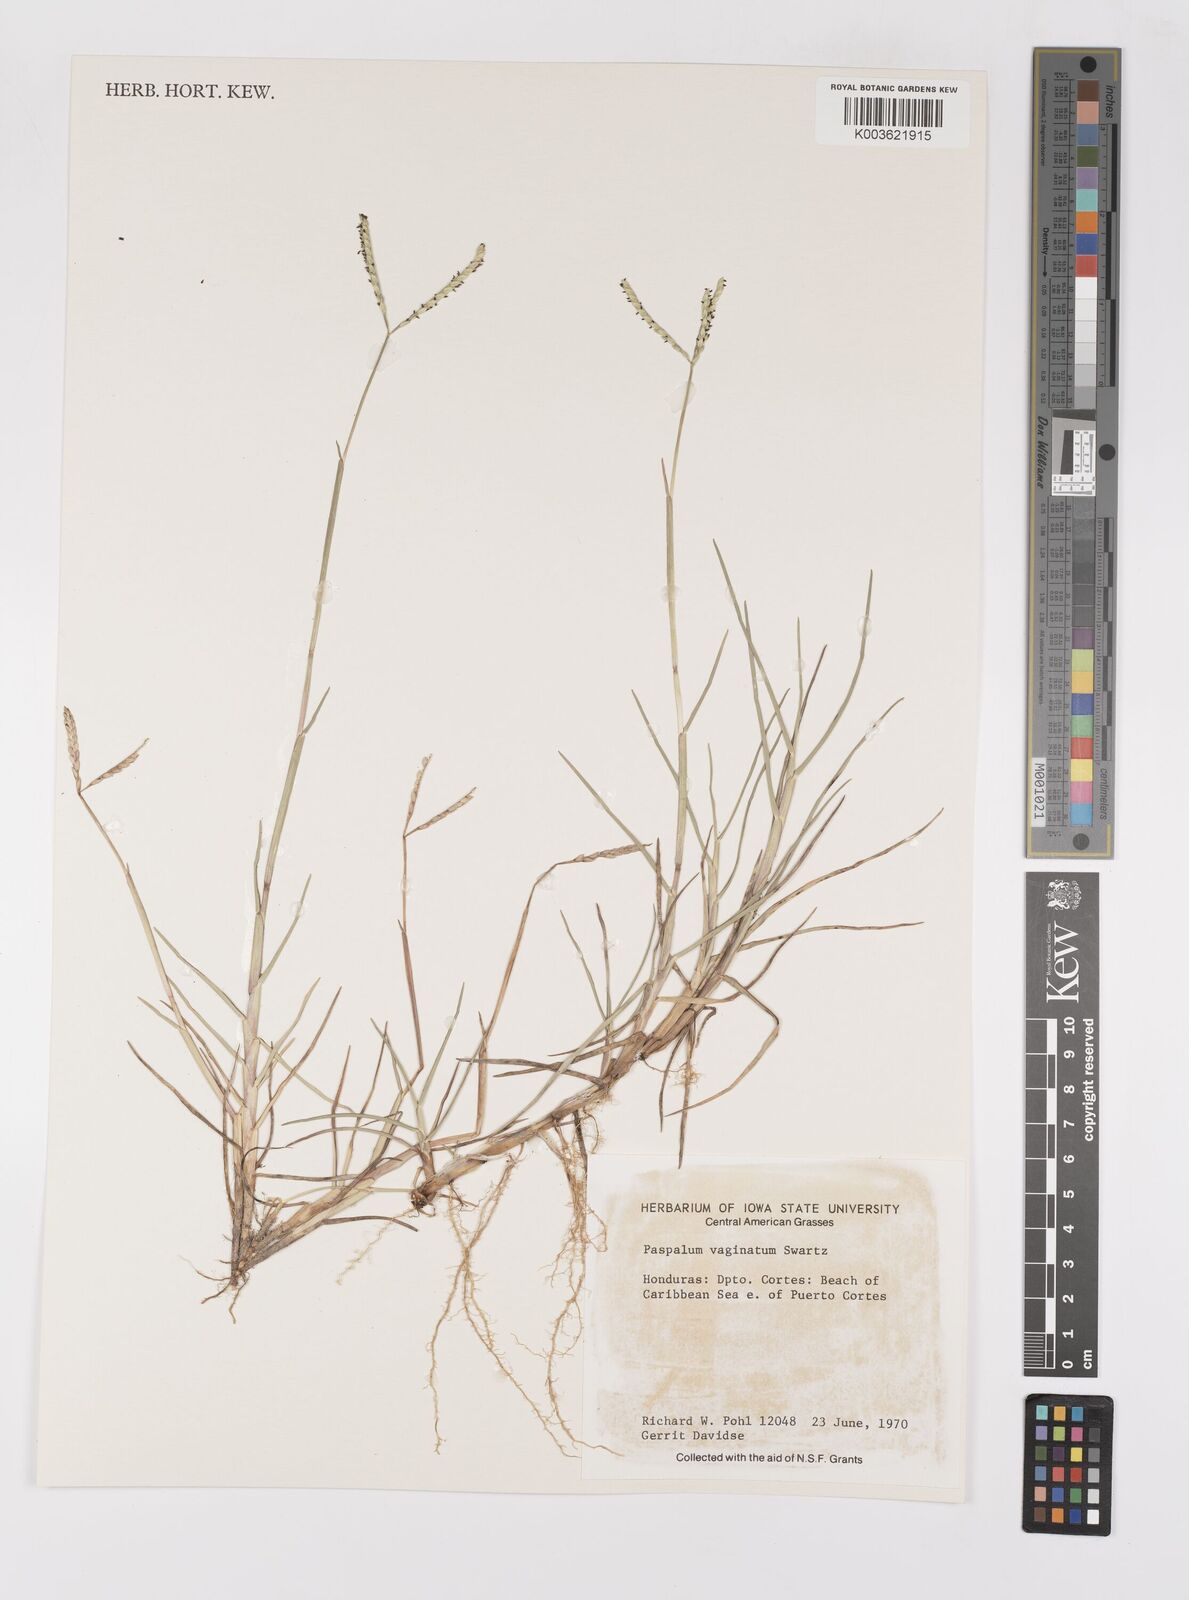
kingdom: Plantae
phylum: Tracheophyta
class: Liliopsida
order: Poales
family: Poaceae
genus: Paspalum
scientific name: Paspalum vaginatum
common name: Seashore paspalum
